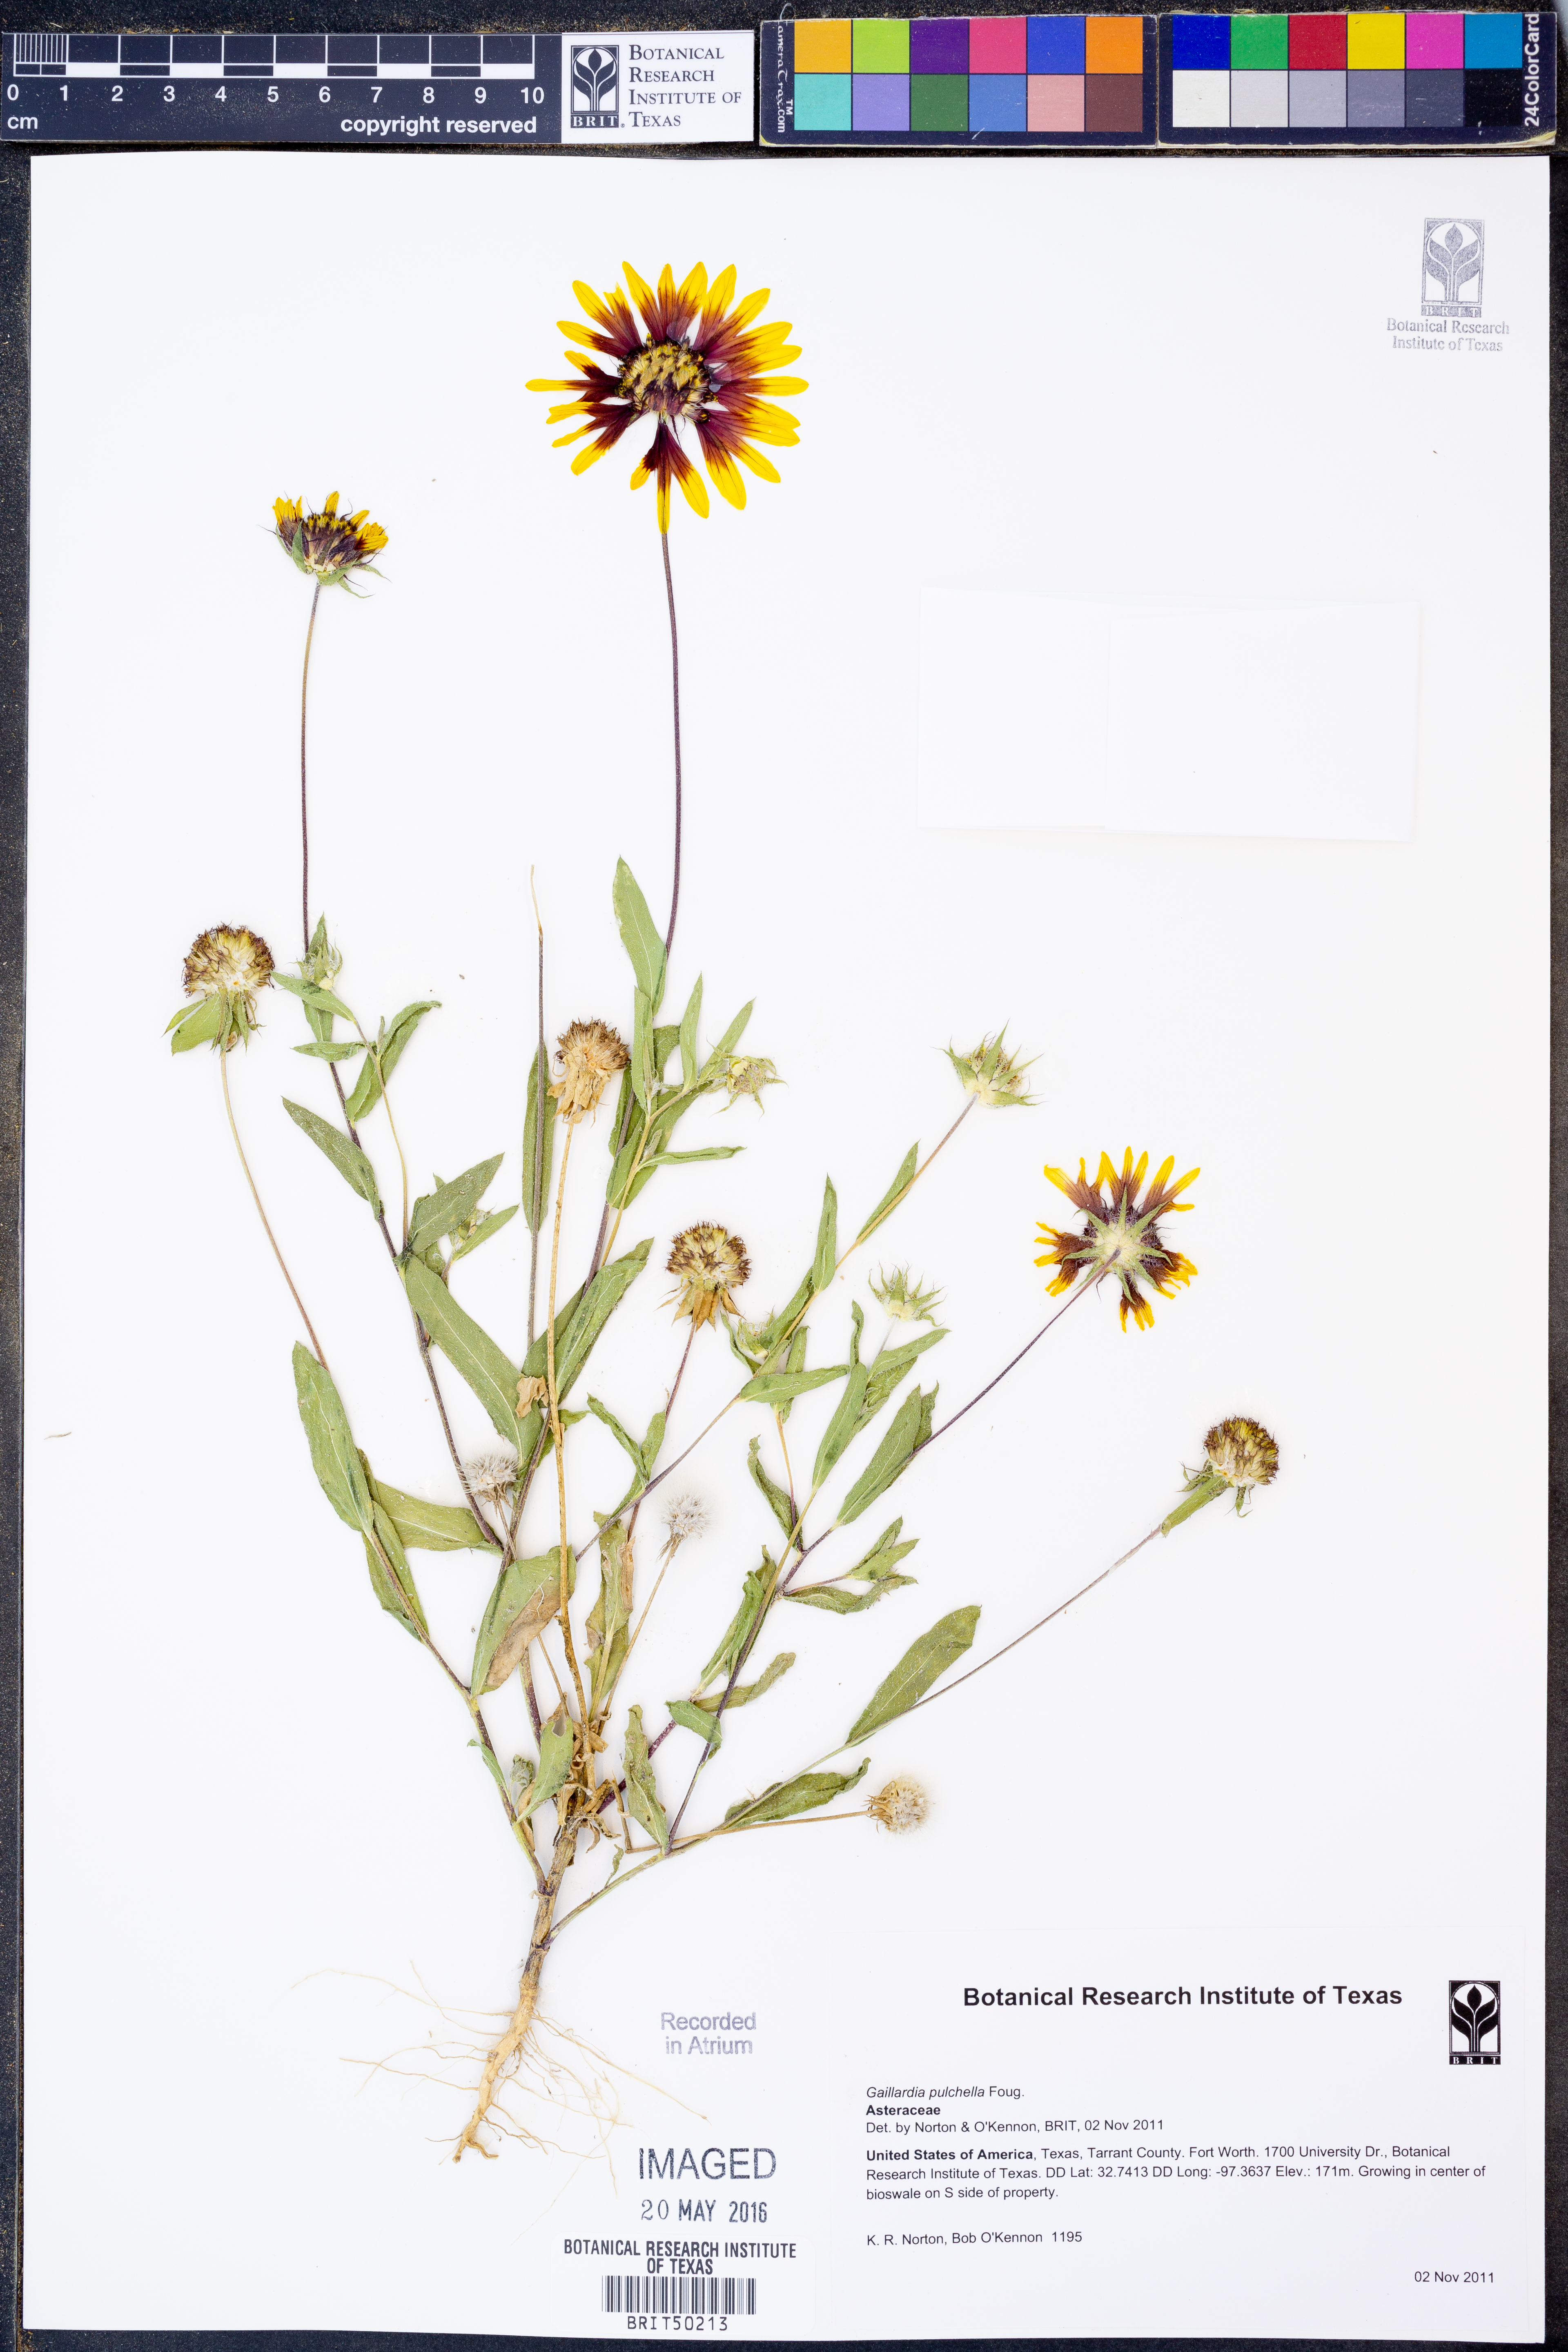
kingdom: Plantae
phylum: Tracheophyta
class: Magnoliopsida
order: Asterales
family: Asteraceae
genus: Gaillardia
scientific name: Gaillardia pulchella
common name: Firewheel
